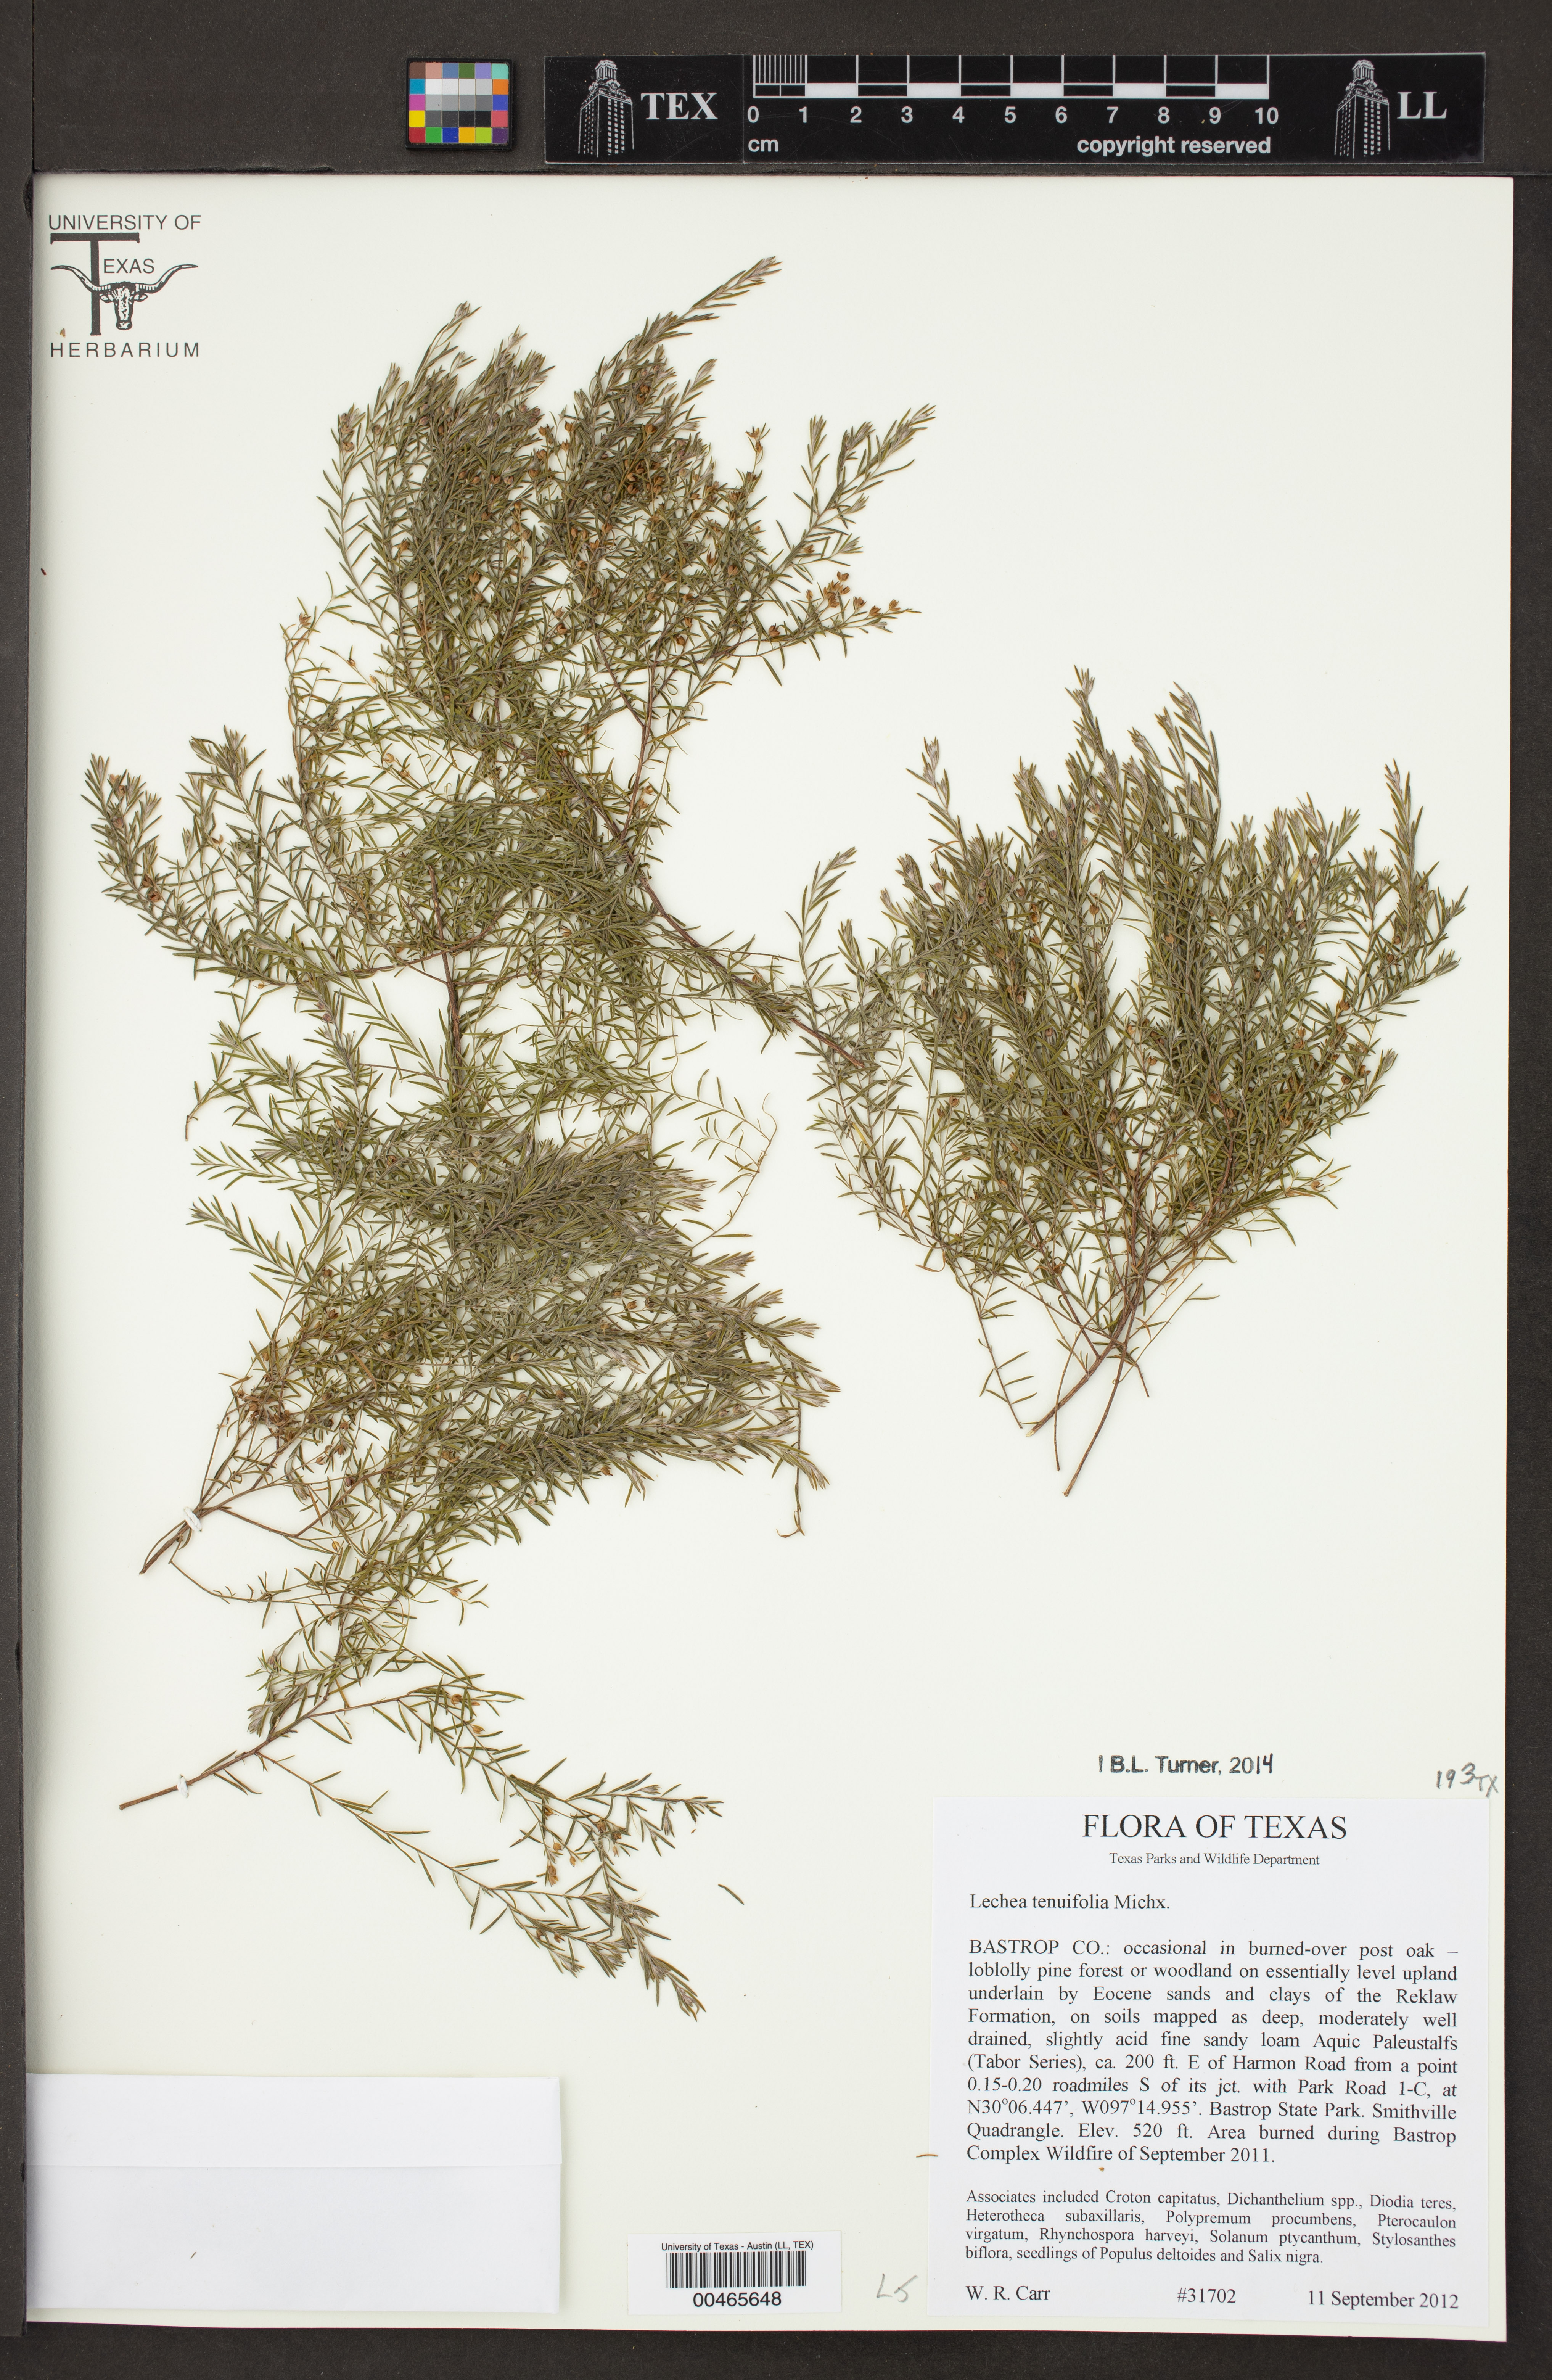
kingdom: Plantae
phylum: Tracheophyta
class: Magnoliopsida
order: Malvales
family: Cistaceae
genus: Lechea
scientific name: Lechea tenuifolia
